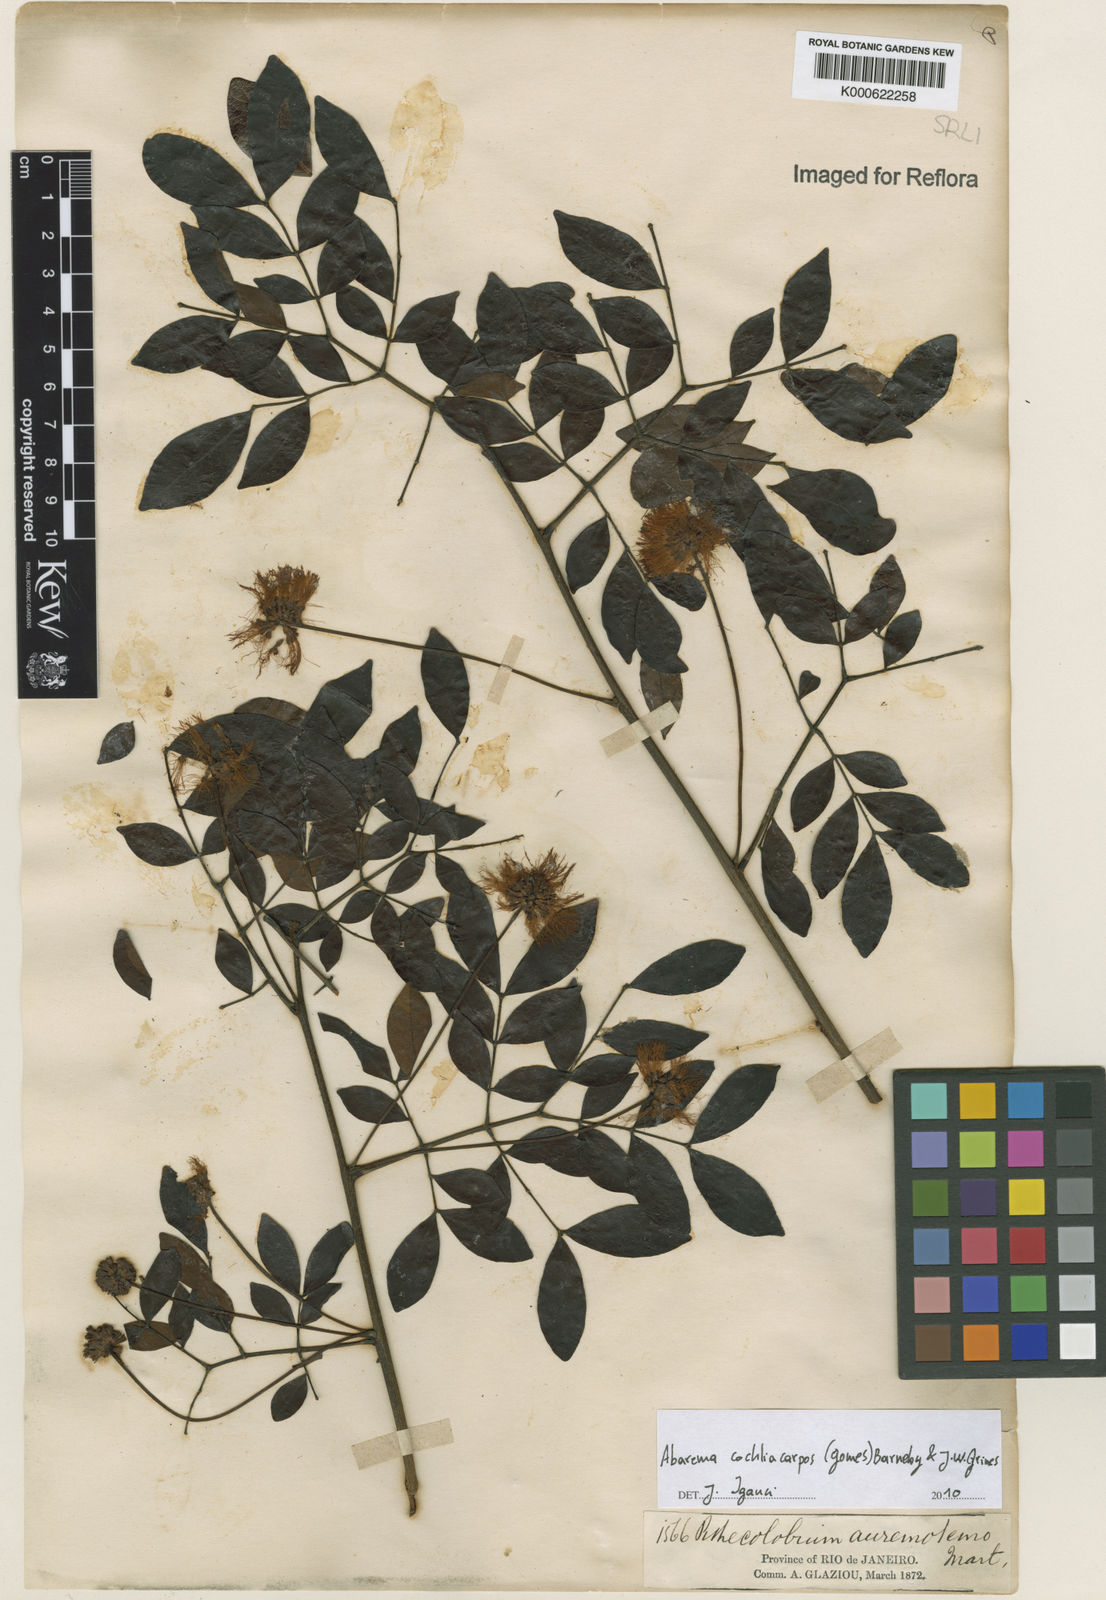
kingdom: Plantae
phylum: Tracheophyta
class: Magnoliopsida
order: Fabales
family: Fabaceae
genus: Abarema
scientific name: Abarema
